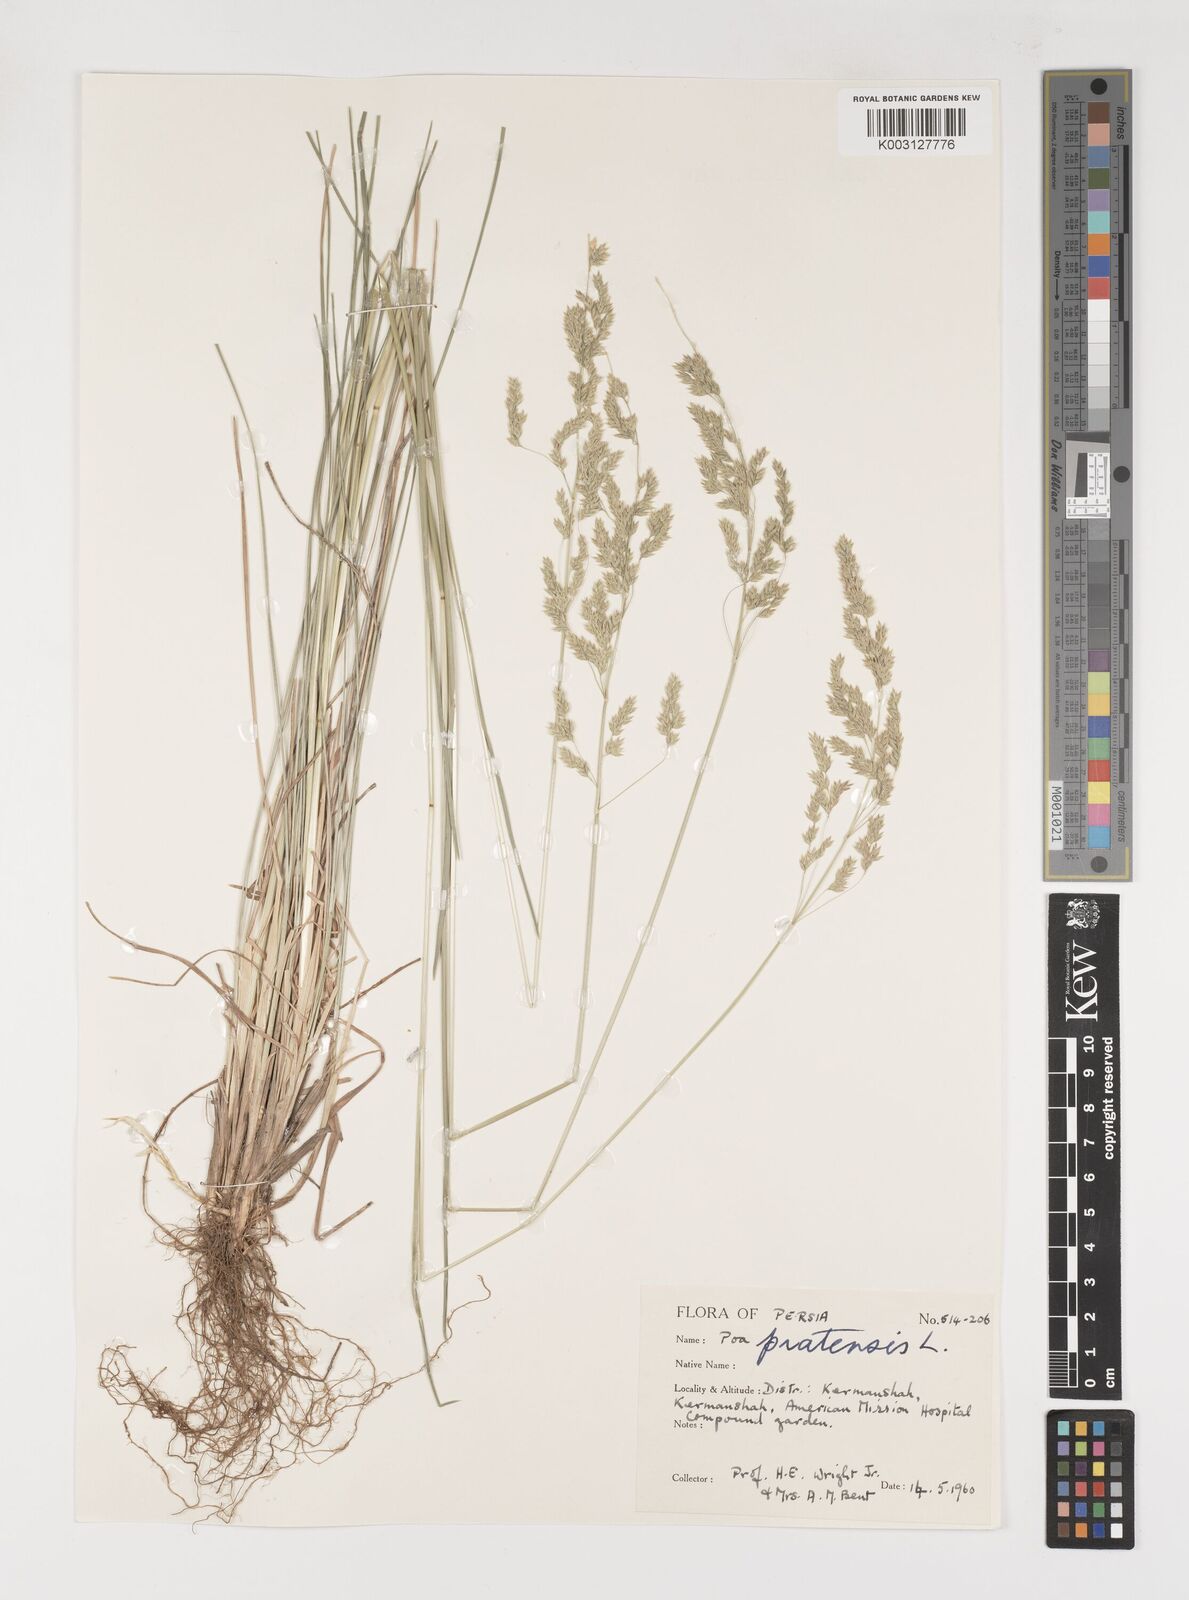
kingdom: Plantae
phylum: Tracheophyta
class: Liliopsida
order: Poales
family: Poaceae
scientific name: Poaceae
